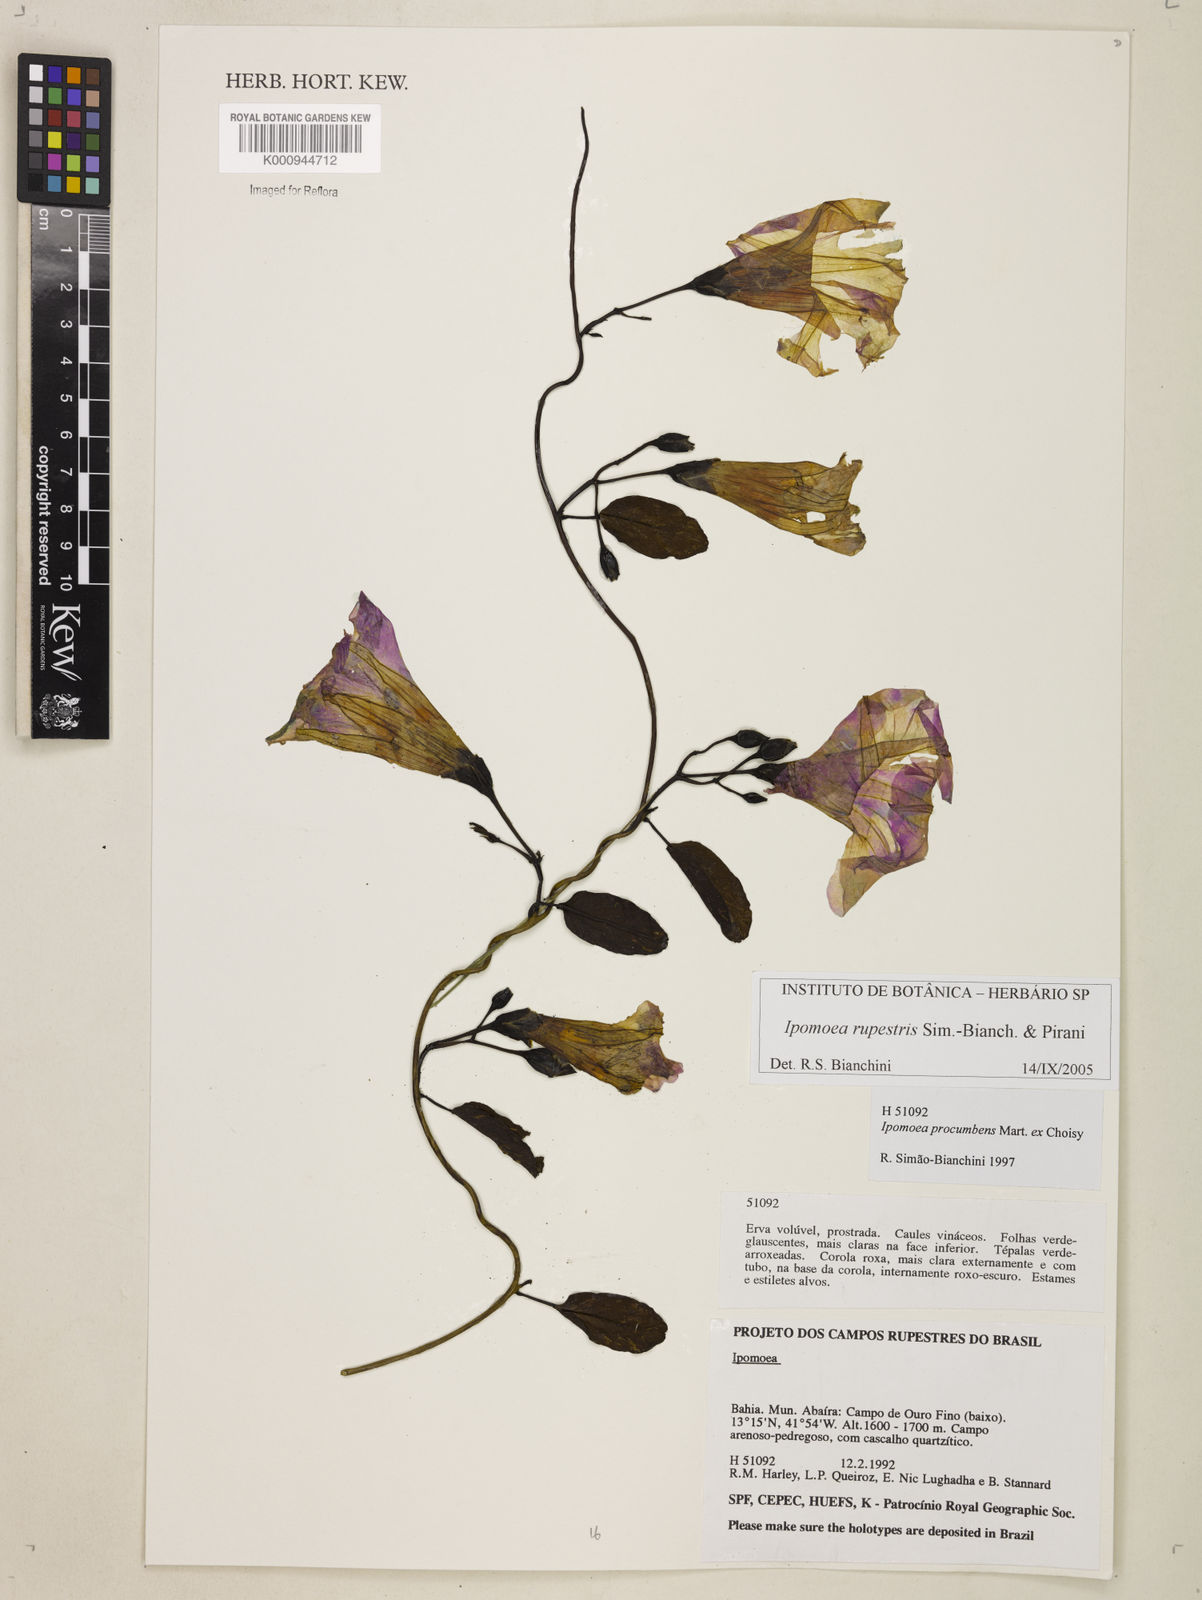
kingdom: Plantae
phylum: Tracheophyta
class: Magnoliopsida
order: Solanales
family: Convolvulaceae
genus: Ipomoea
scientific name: Ipomoea rupestris
